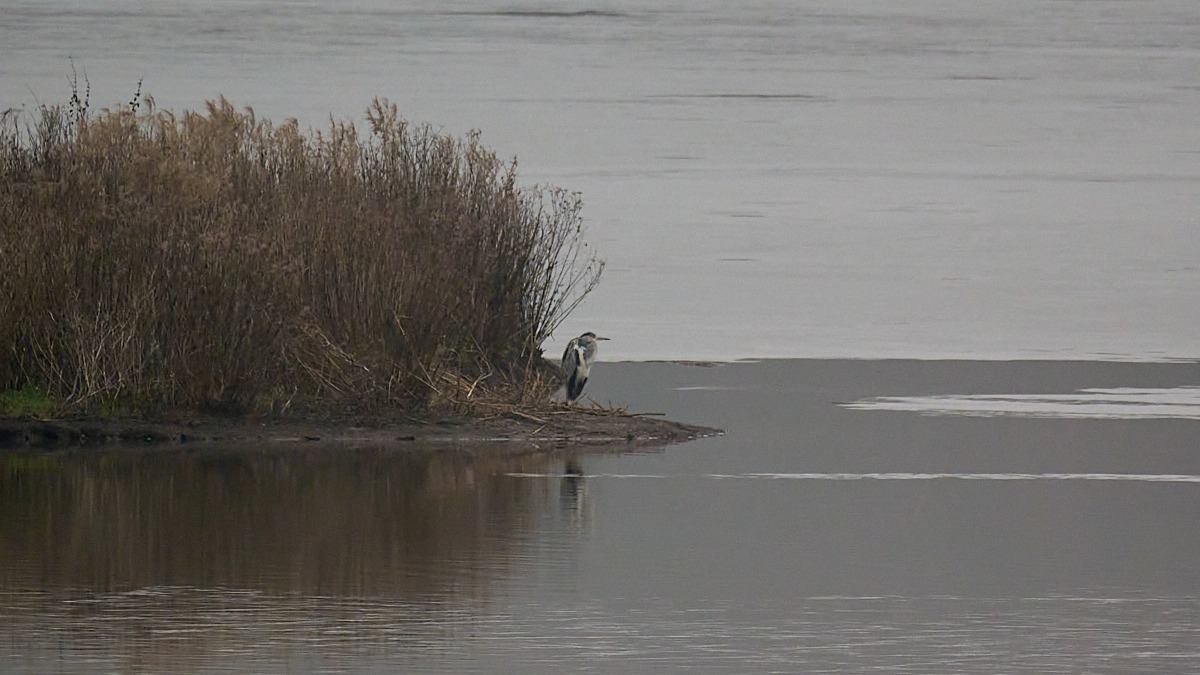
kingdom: Animalia
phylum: Chordata
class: Aves
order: Pelecaniformes
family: Ardeidae
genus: Ardea
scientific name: Ardea cinerea
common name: Fiskehejre
